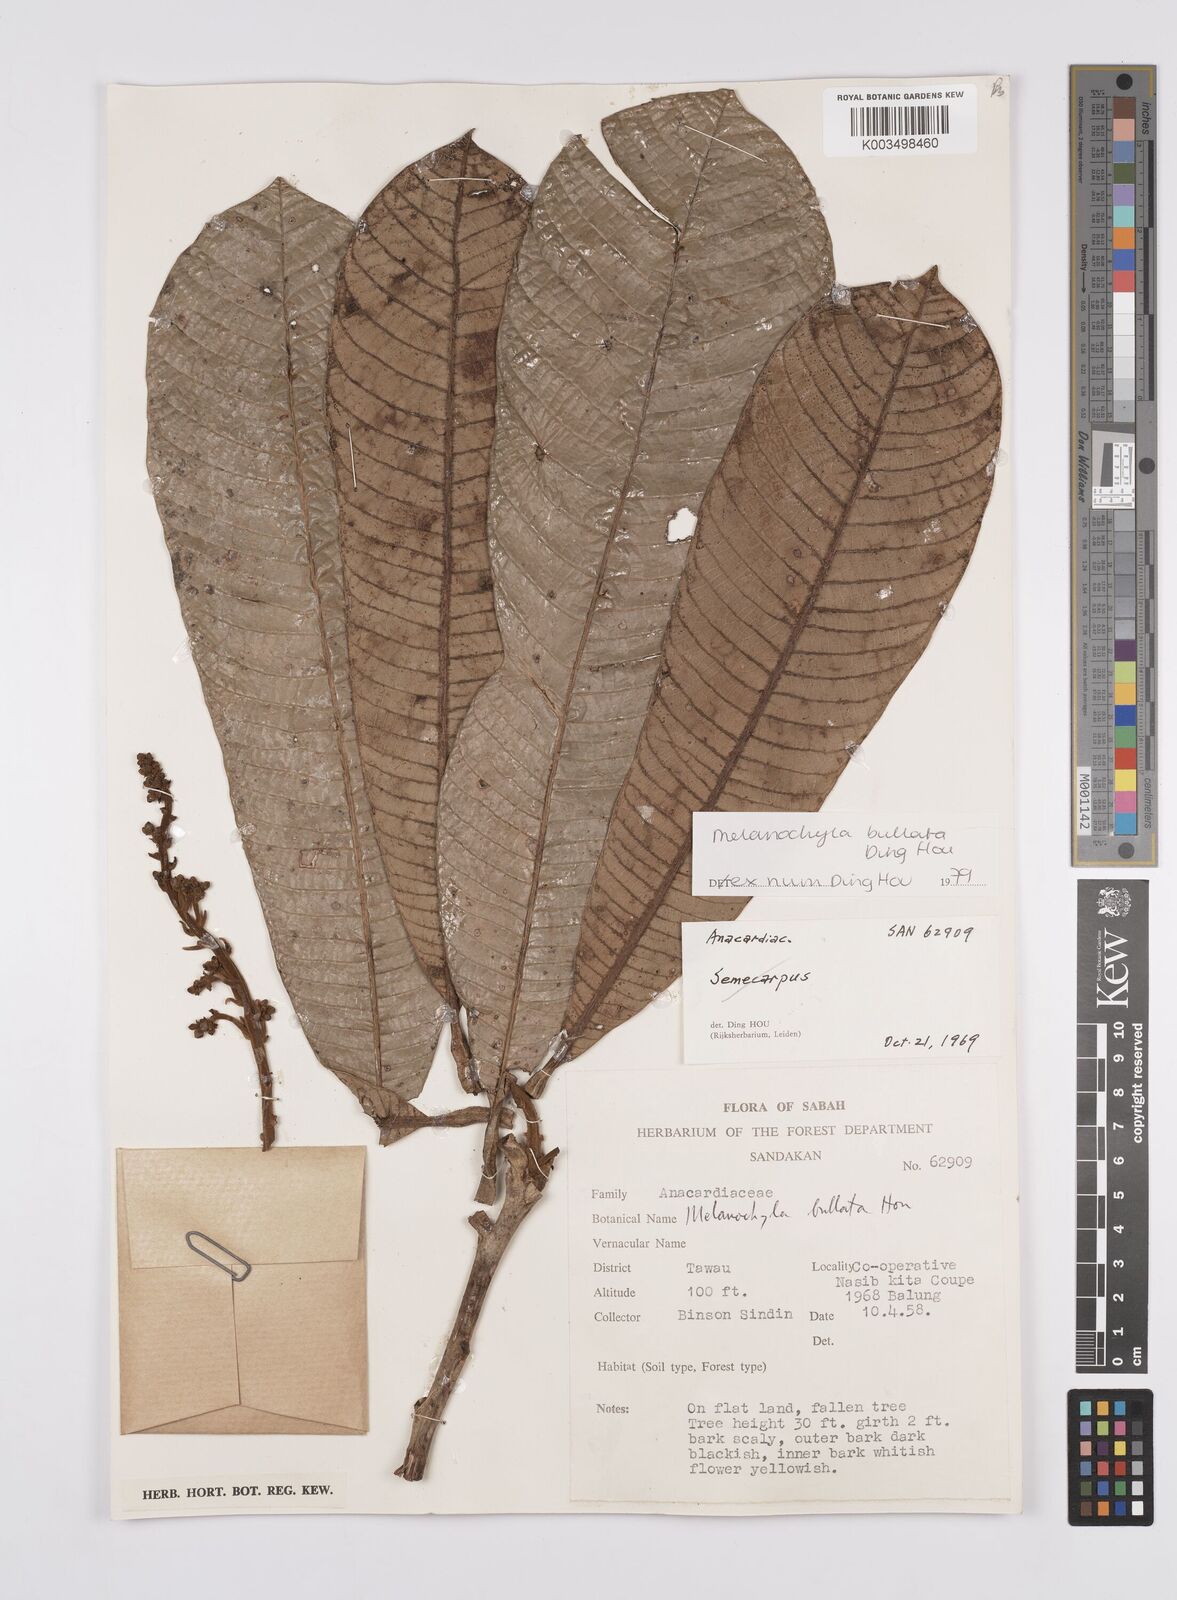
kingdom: Plantae
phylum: Tracheophyta
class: Magnoliopsida
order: Sapindales
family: Anacardiaceae
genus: Melanochyla
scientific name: Melanochyla bullata
